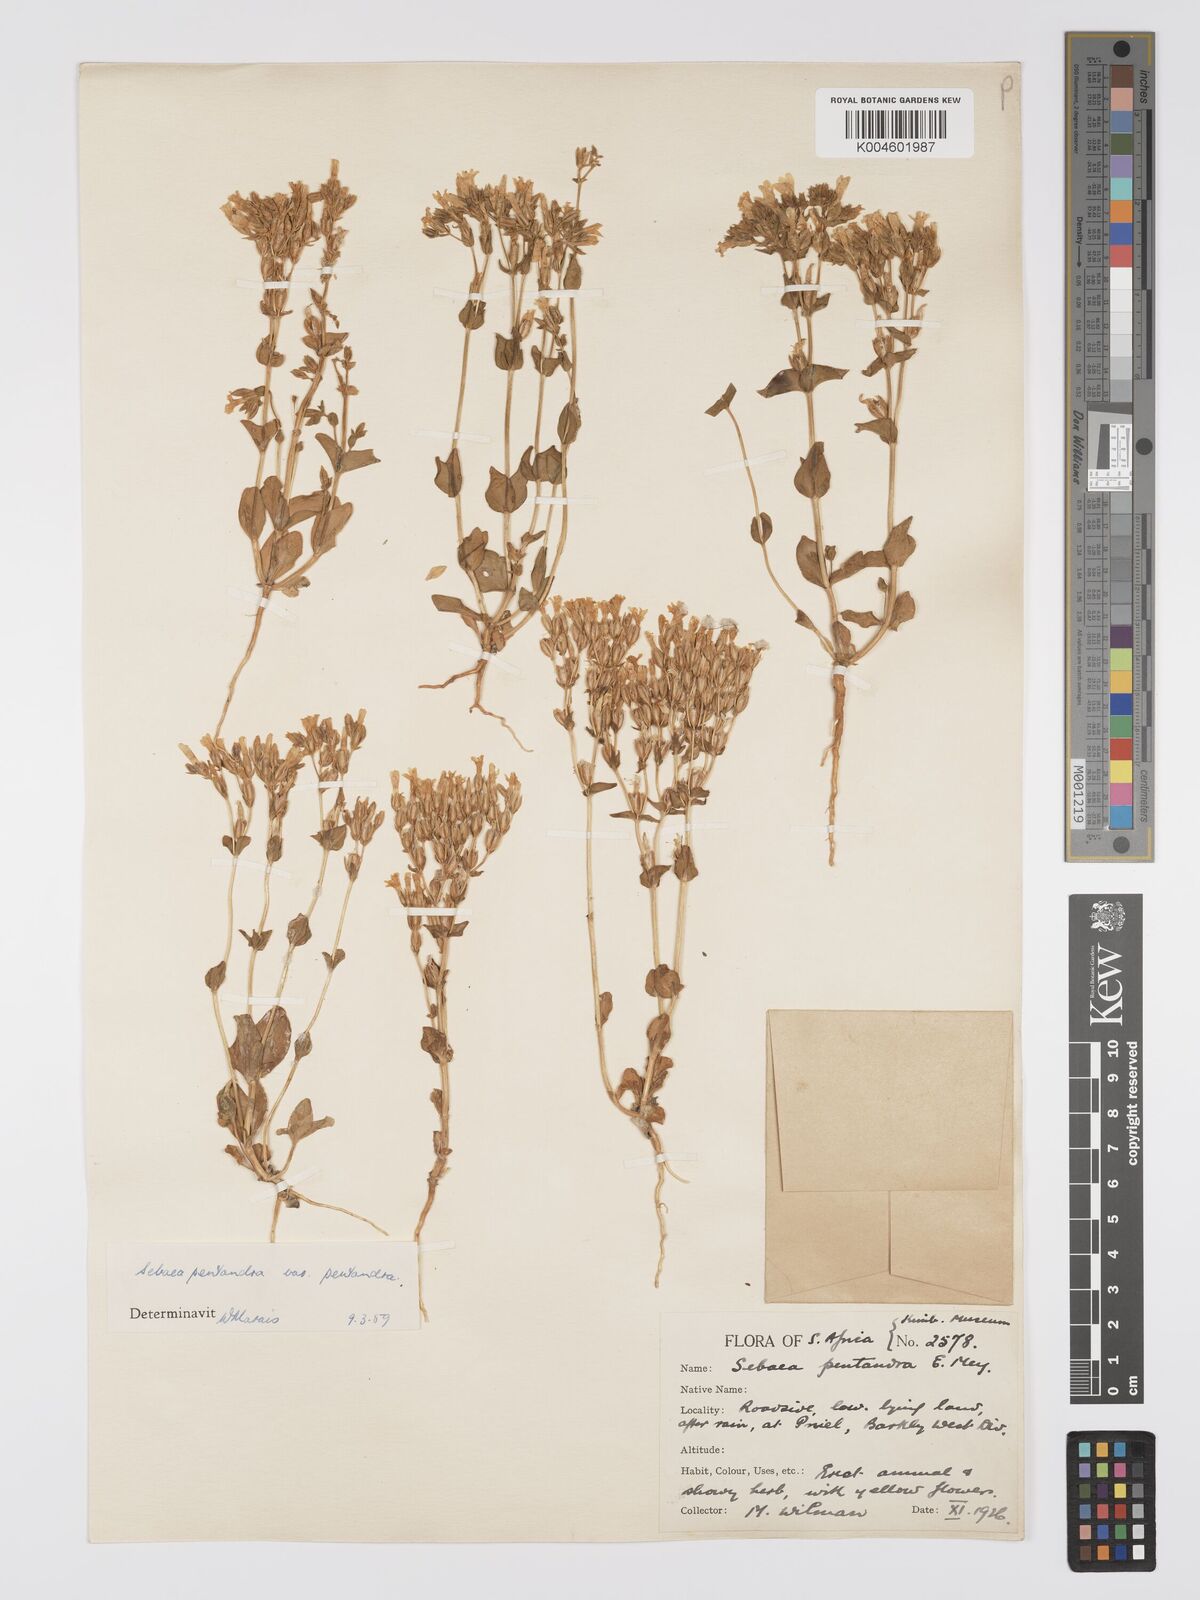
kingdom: Plantae
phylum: Tracheophyta
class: Magnoliopsida
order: Gentianales
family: Gentianaceae
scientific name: Gentianaceae
